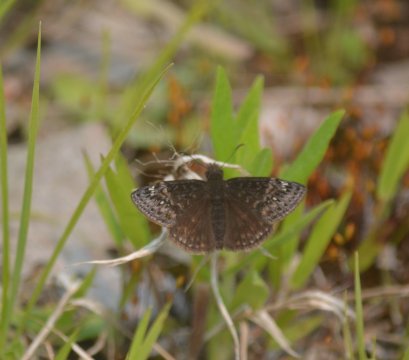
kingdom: Animalia
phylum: Arthropoda
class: Insecta
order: Lepidoptera
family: Hesperiidae
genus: Gesta
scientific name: Gesta
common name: Juvenal's Duskywing
